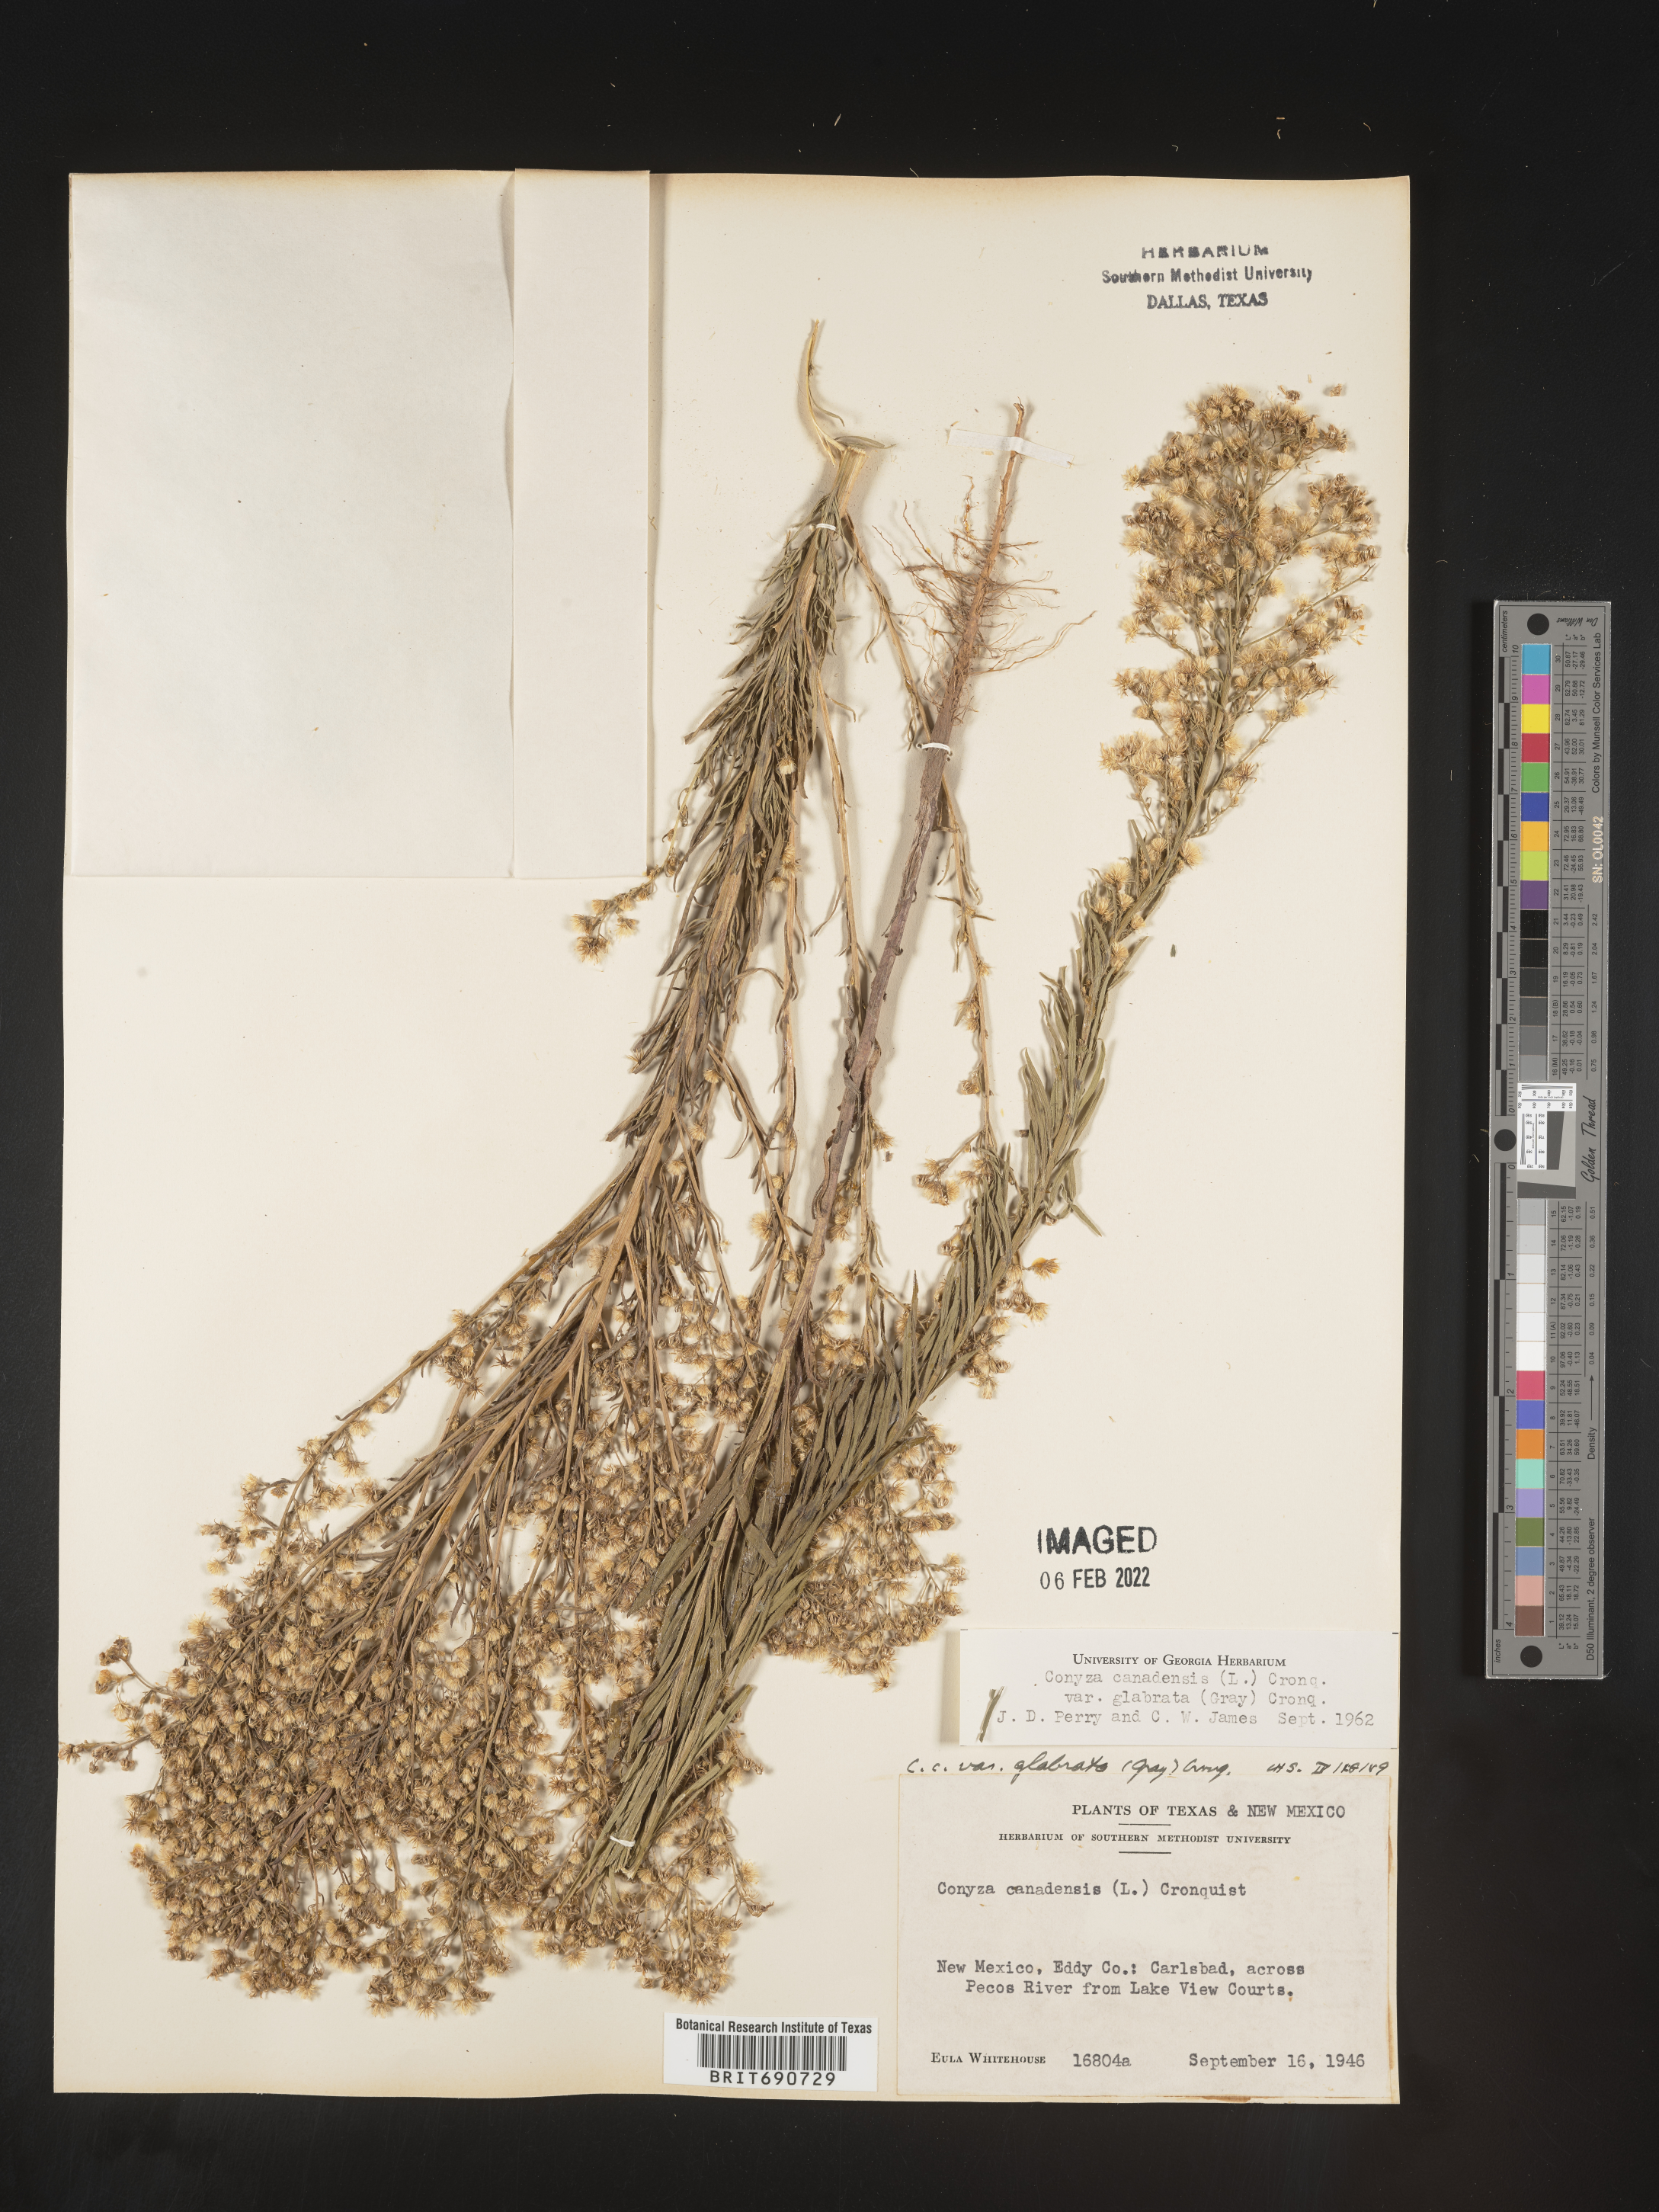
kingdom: Plantae
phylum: Tracheophyta
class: Magnoliopsida
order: Asterales
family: Asteraceae
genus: Erigeron
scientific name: Erigeron canadensis
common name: Canadian fleabane
